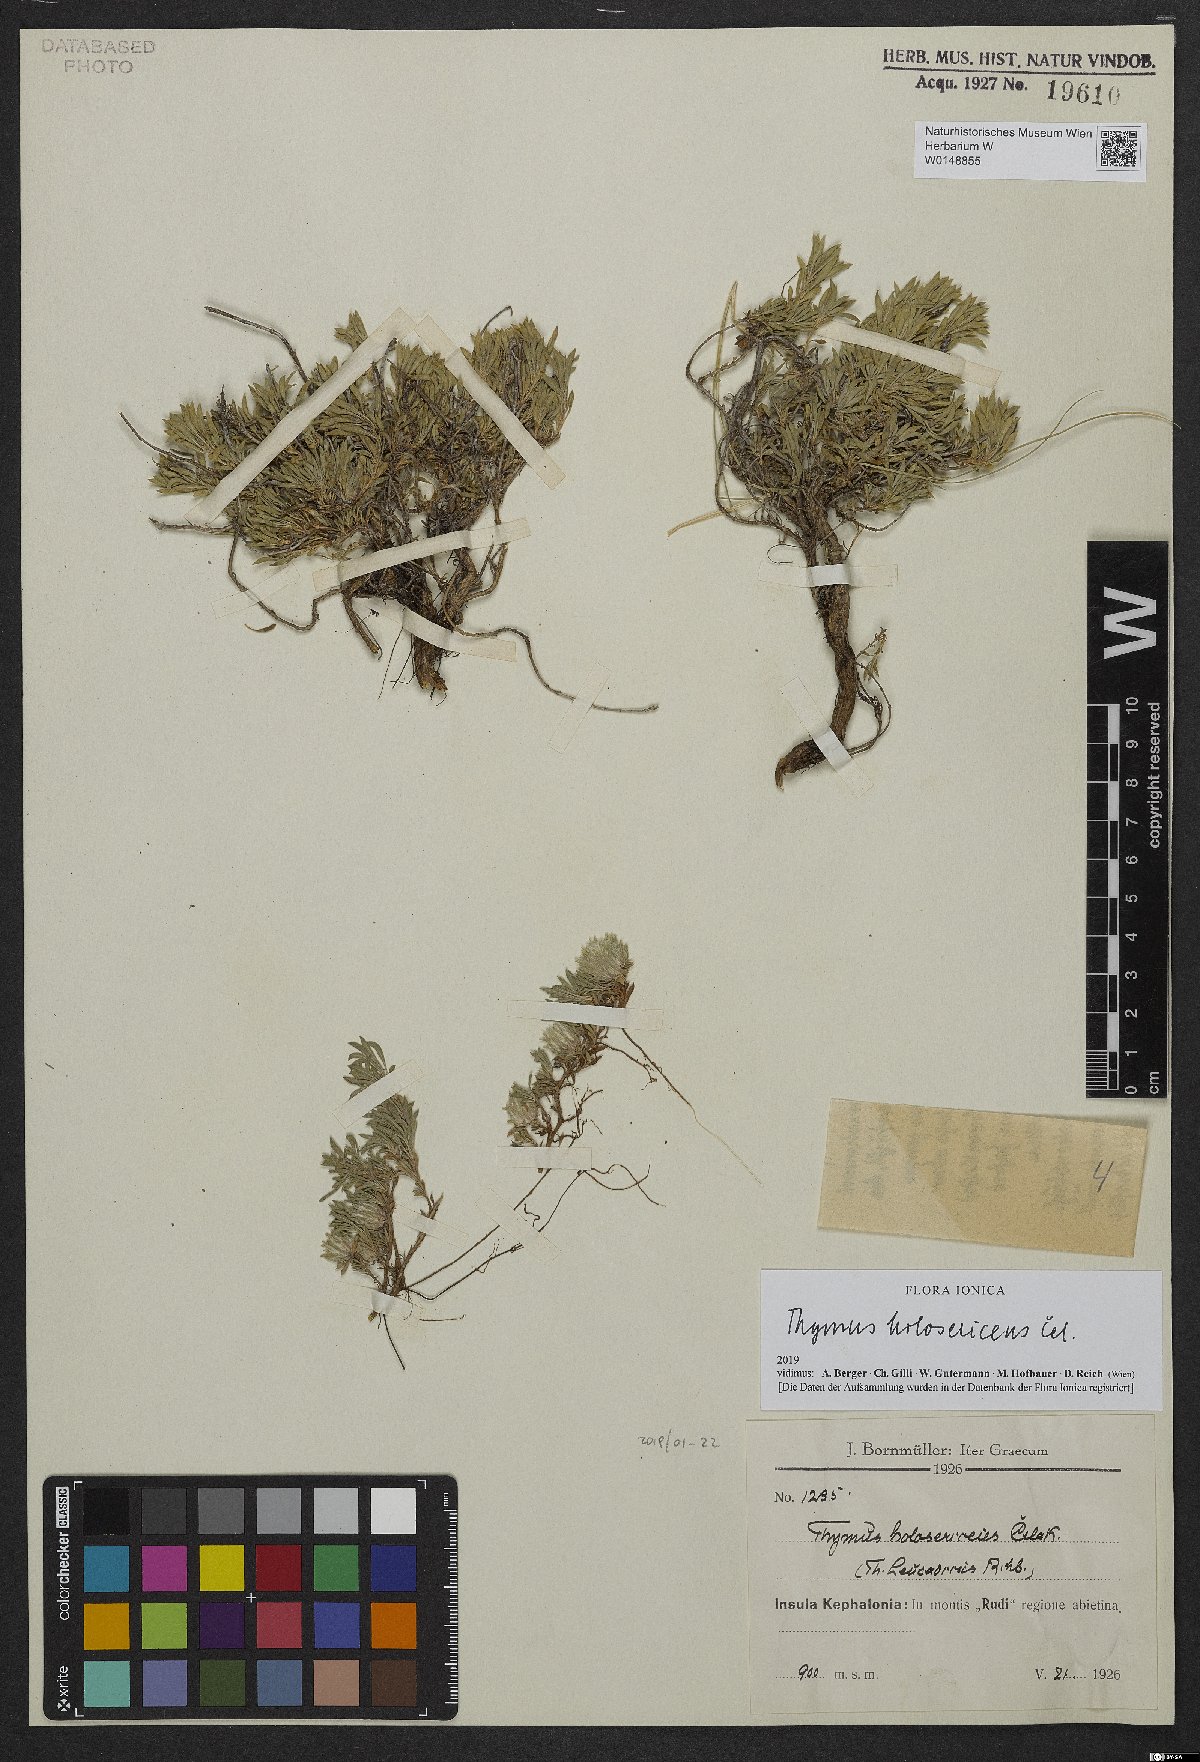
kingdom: Plantae
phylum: Tracheophyta
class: Magnoliopsida
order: Lamiales
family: Lamiaceae
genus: Thymus
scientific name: Thymus holosericeus
